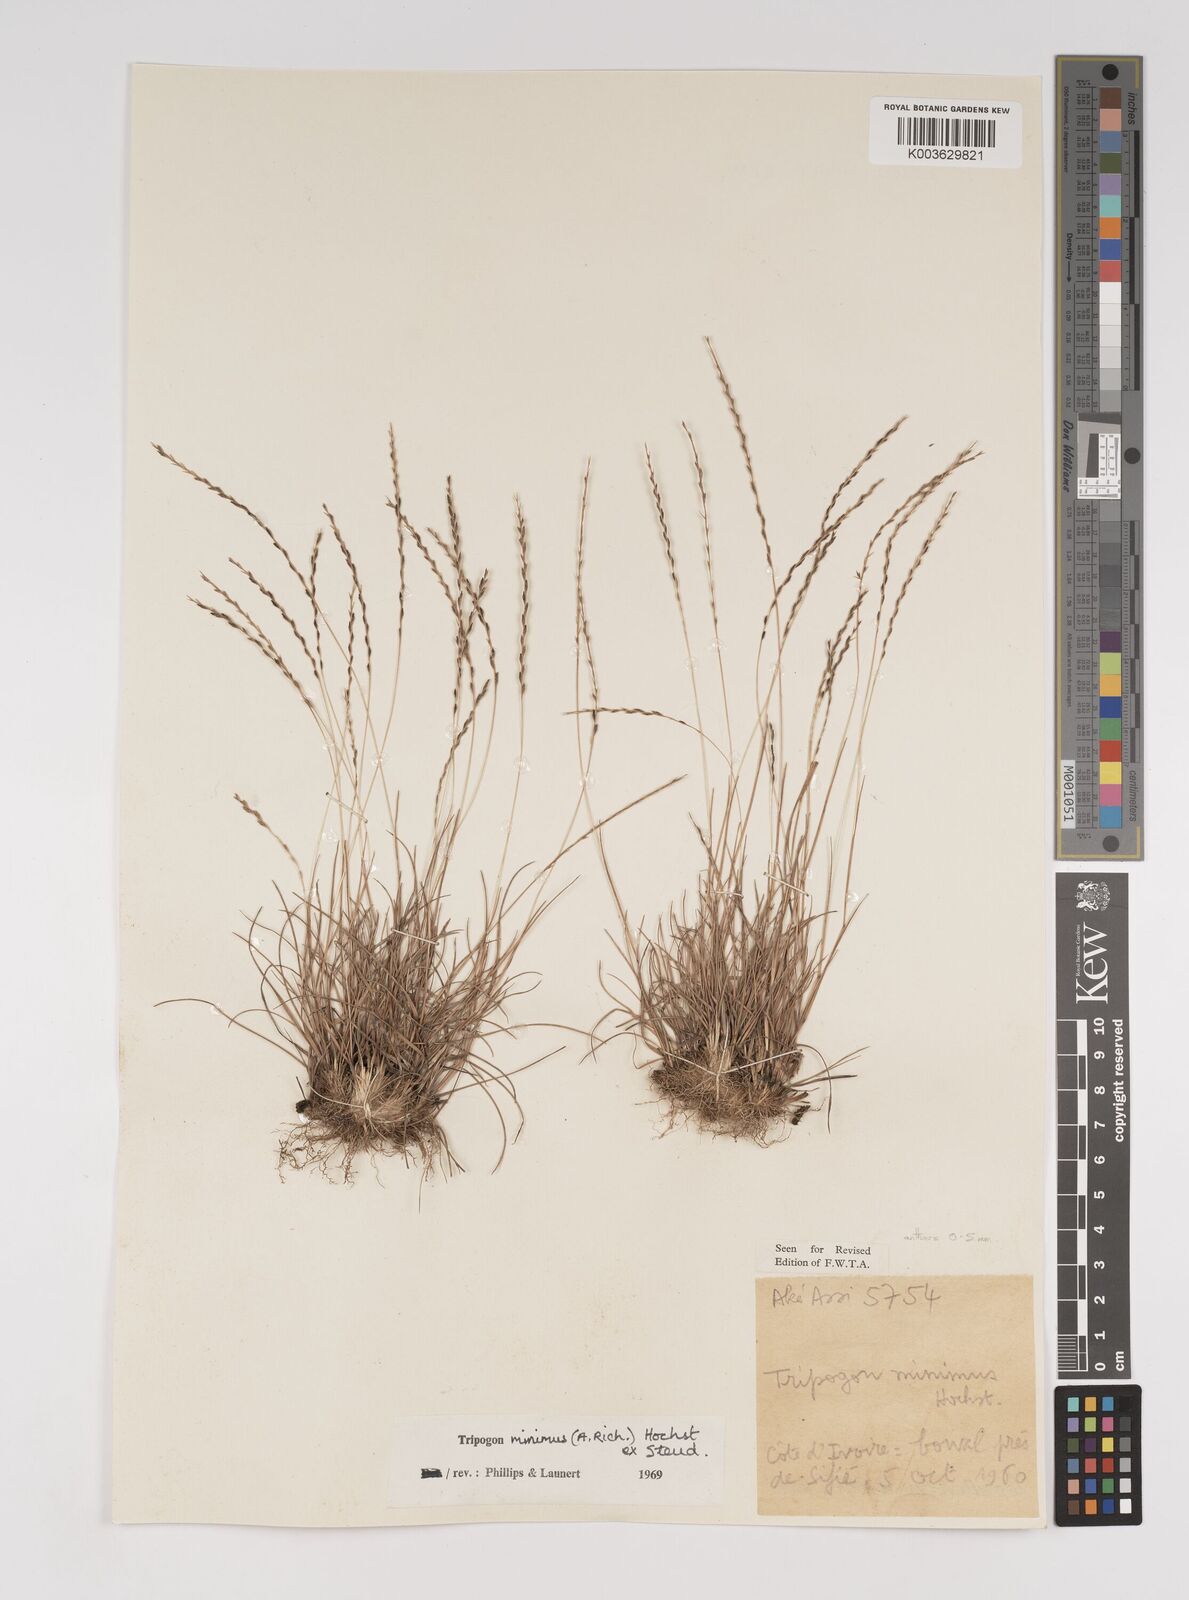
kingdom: Plantae
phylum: Tracheophyta
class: Liliopsida
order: Poales
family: Poaceae
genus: Tripogonella
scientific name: Tripogonella minima
